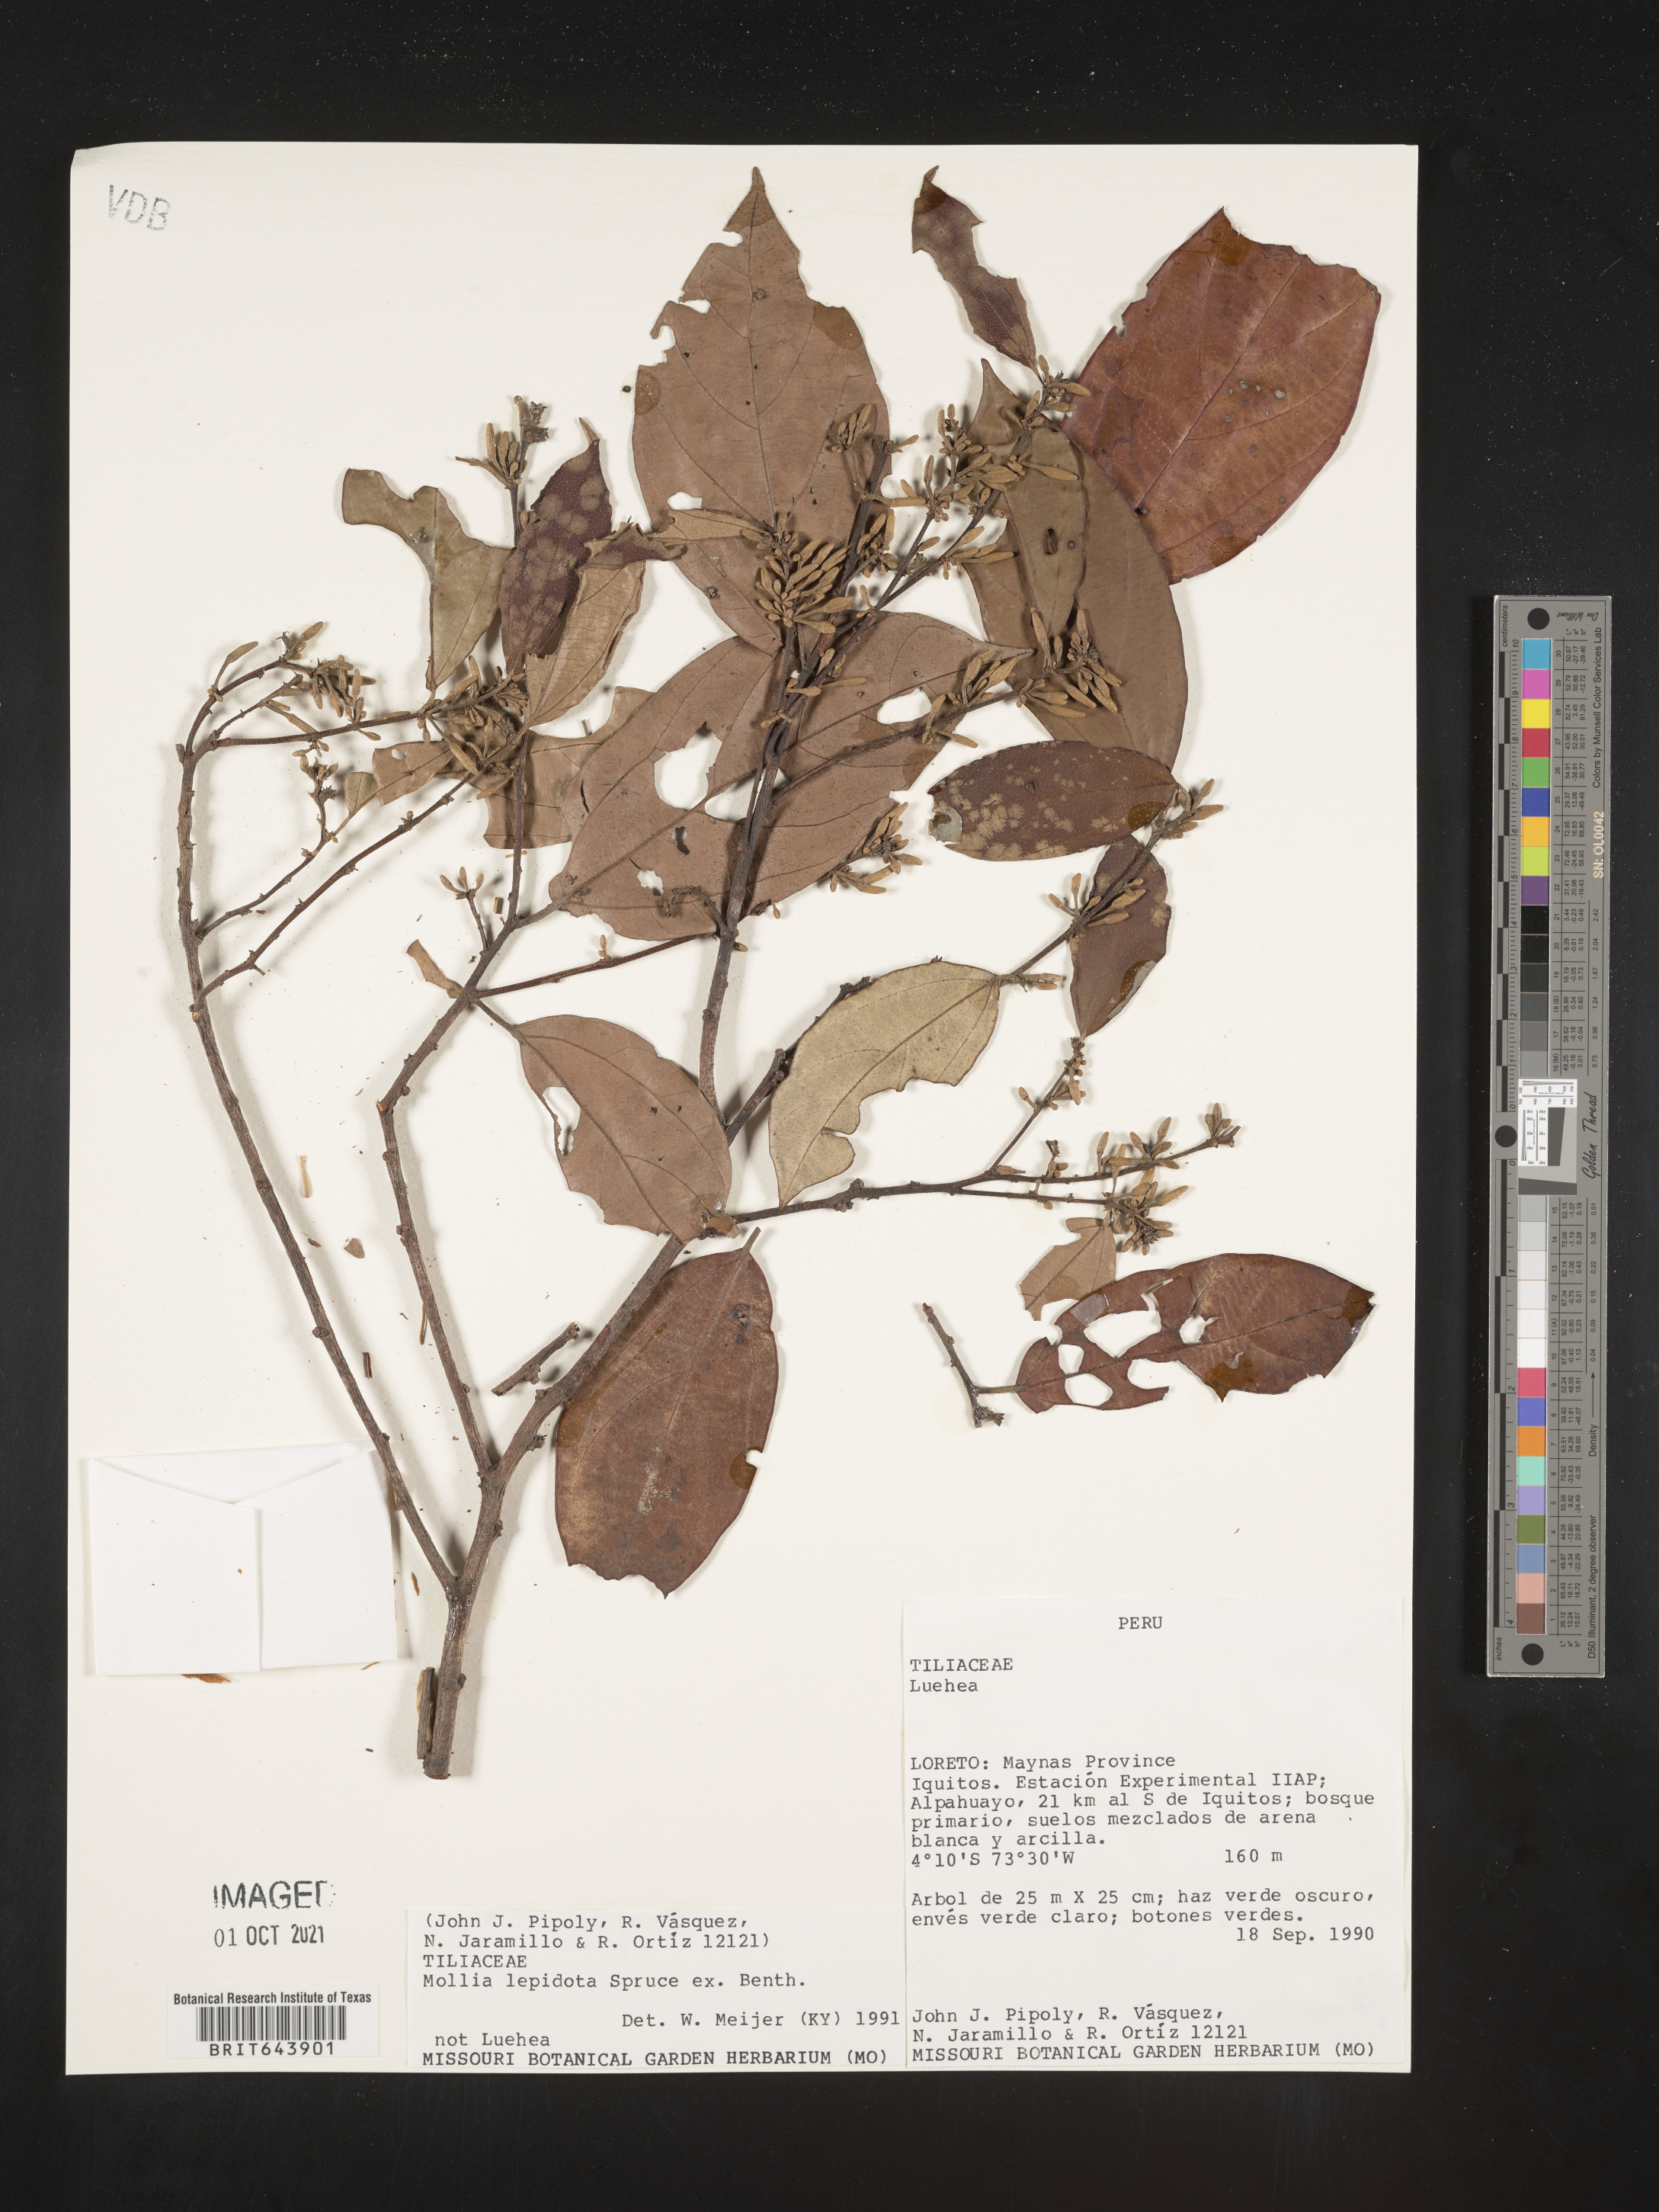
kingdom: Plantae
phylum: Tracheophyta
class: Magnoliopsida
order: Malvales
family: Malvaceae
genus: Mollia
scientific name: Mollia
